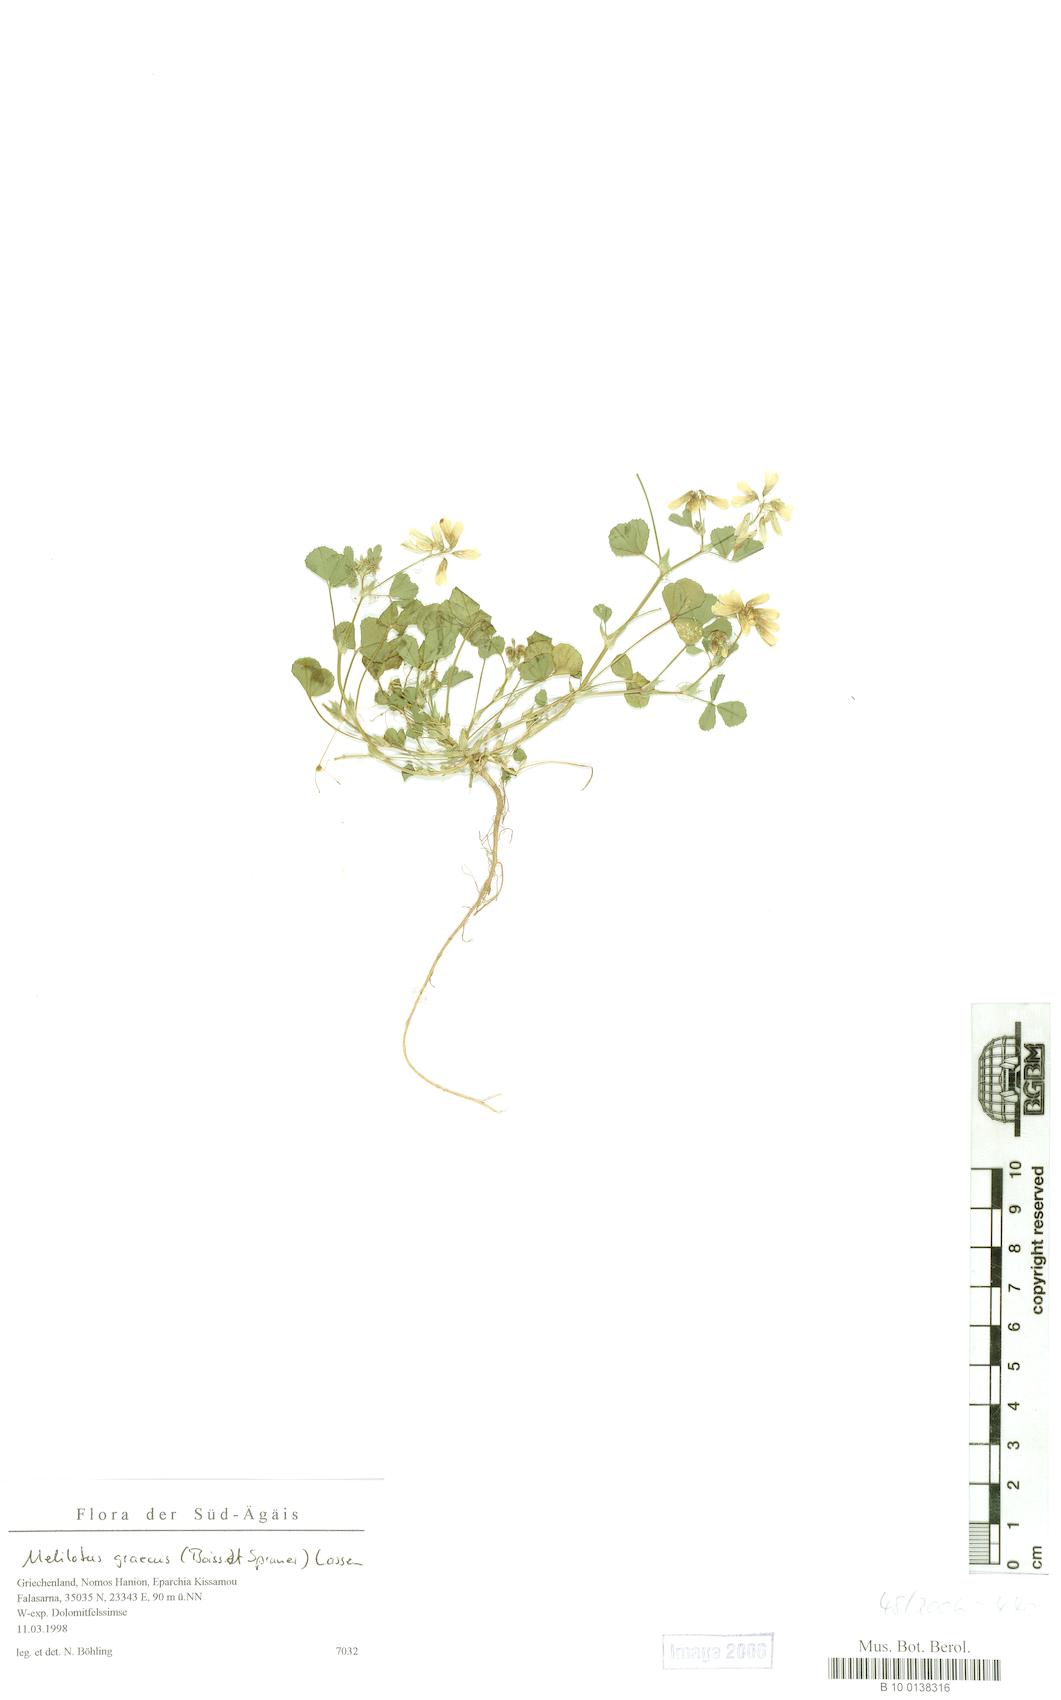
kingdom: Plantae
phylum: Tracheophyta
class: Magnoliopsida
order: Fabales
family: Fabaceae
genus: Trigonella
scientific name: Trigonella graeca
